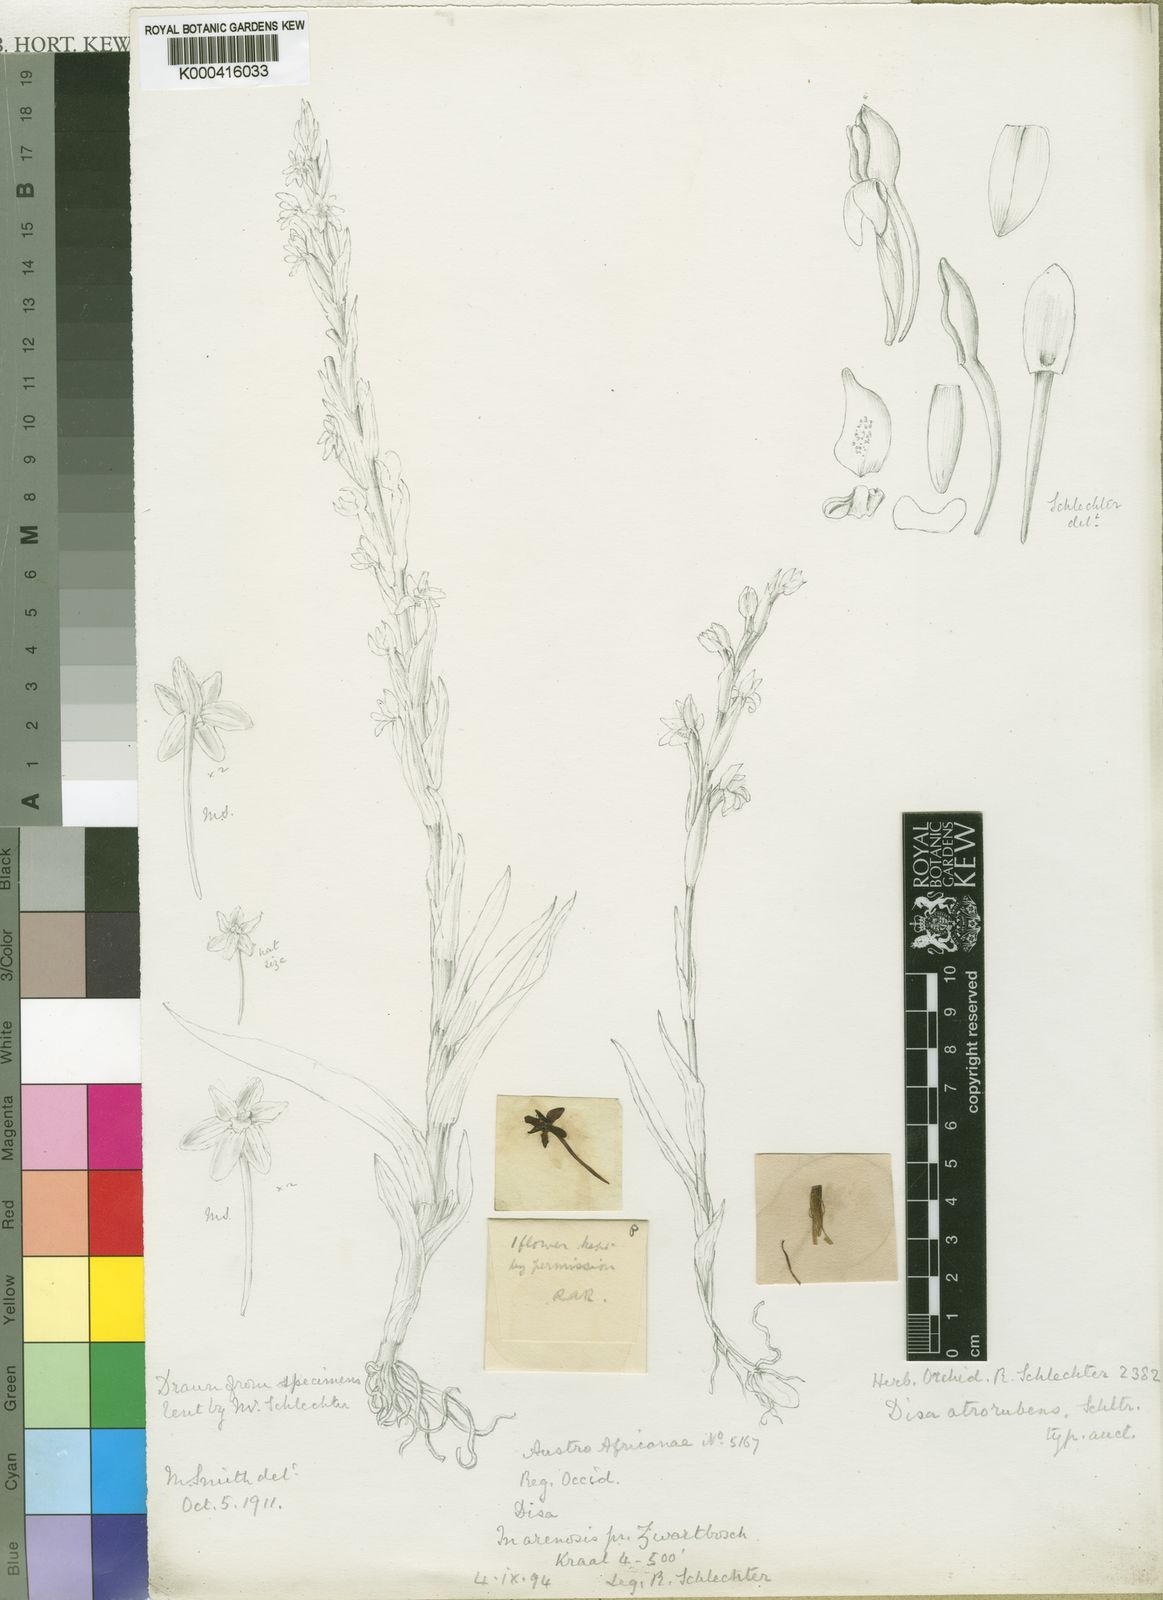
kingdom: Plantae
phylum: Tracheophyta
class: Liliopsida
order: Asparagales
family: Orchidaceae
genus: Disa
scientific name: Disa atrorubens
